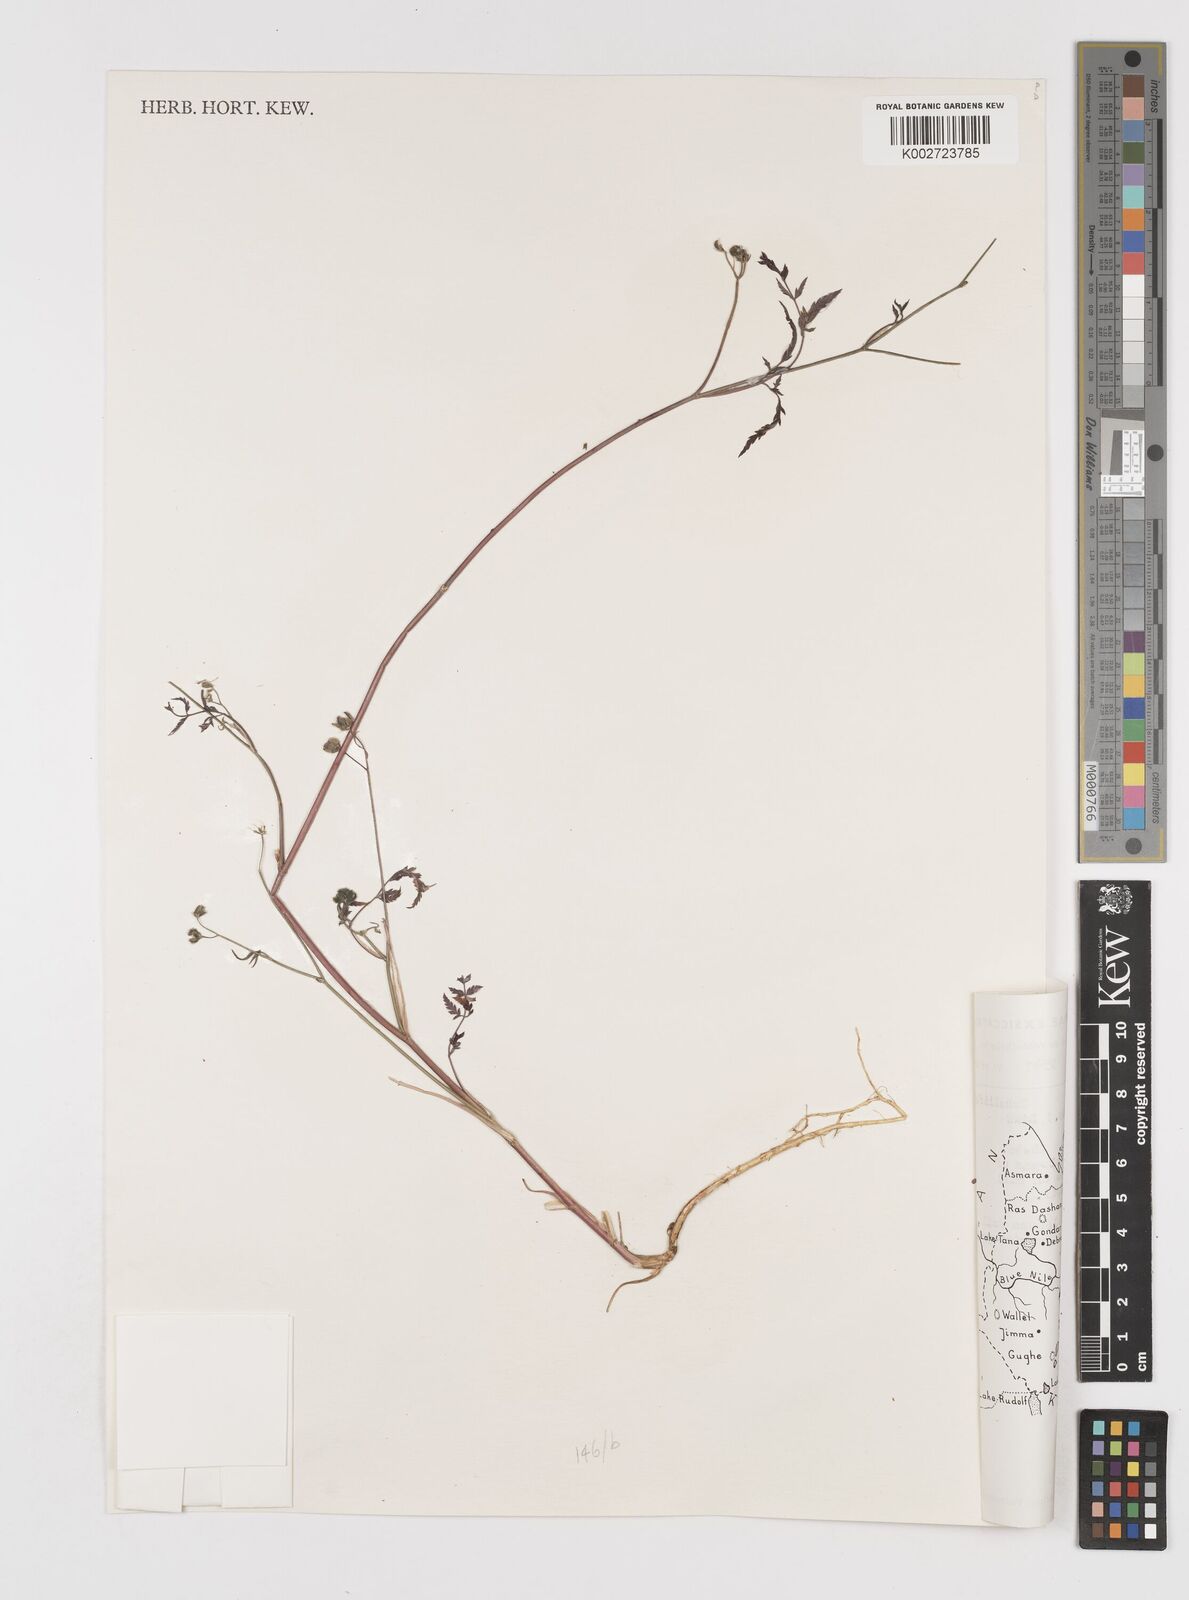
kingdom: Plantae
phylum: Tracheophyta
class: Magnoliopsida
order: Apiales
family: Apiaceae
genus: Torilis
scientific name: Torilis arvensis
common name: Spreading hedge-parsley
